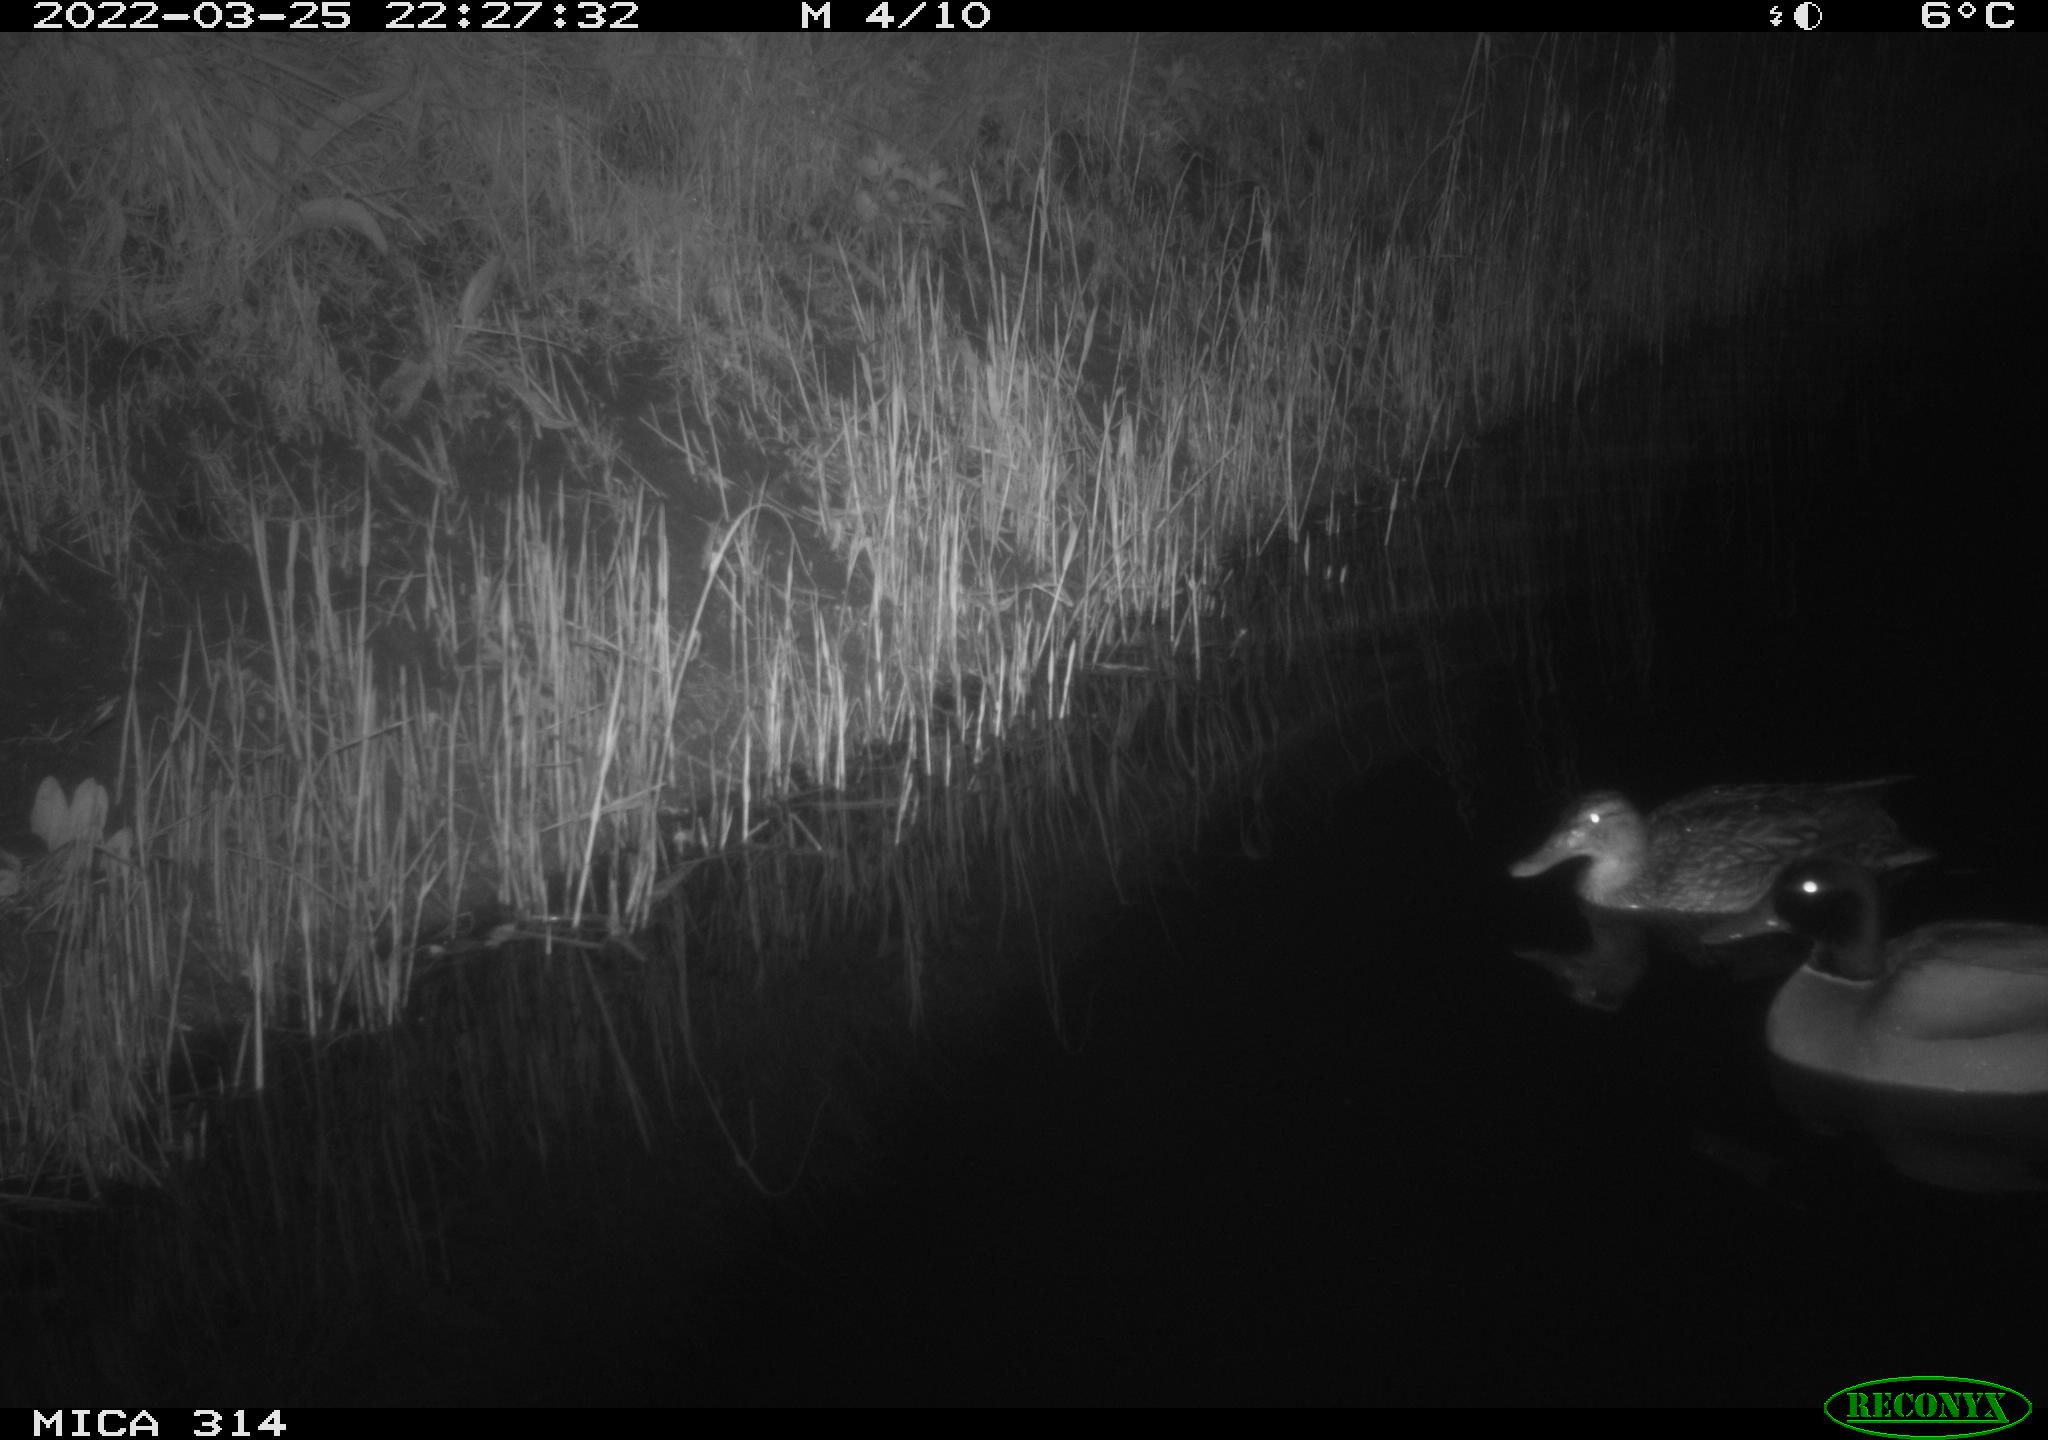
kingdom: Animalia
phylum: Chordata
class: Aves
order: Anseriformes
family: Anatidae
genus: Anas
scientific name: Anas platyrhynchos
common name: Mallard
